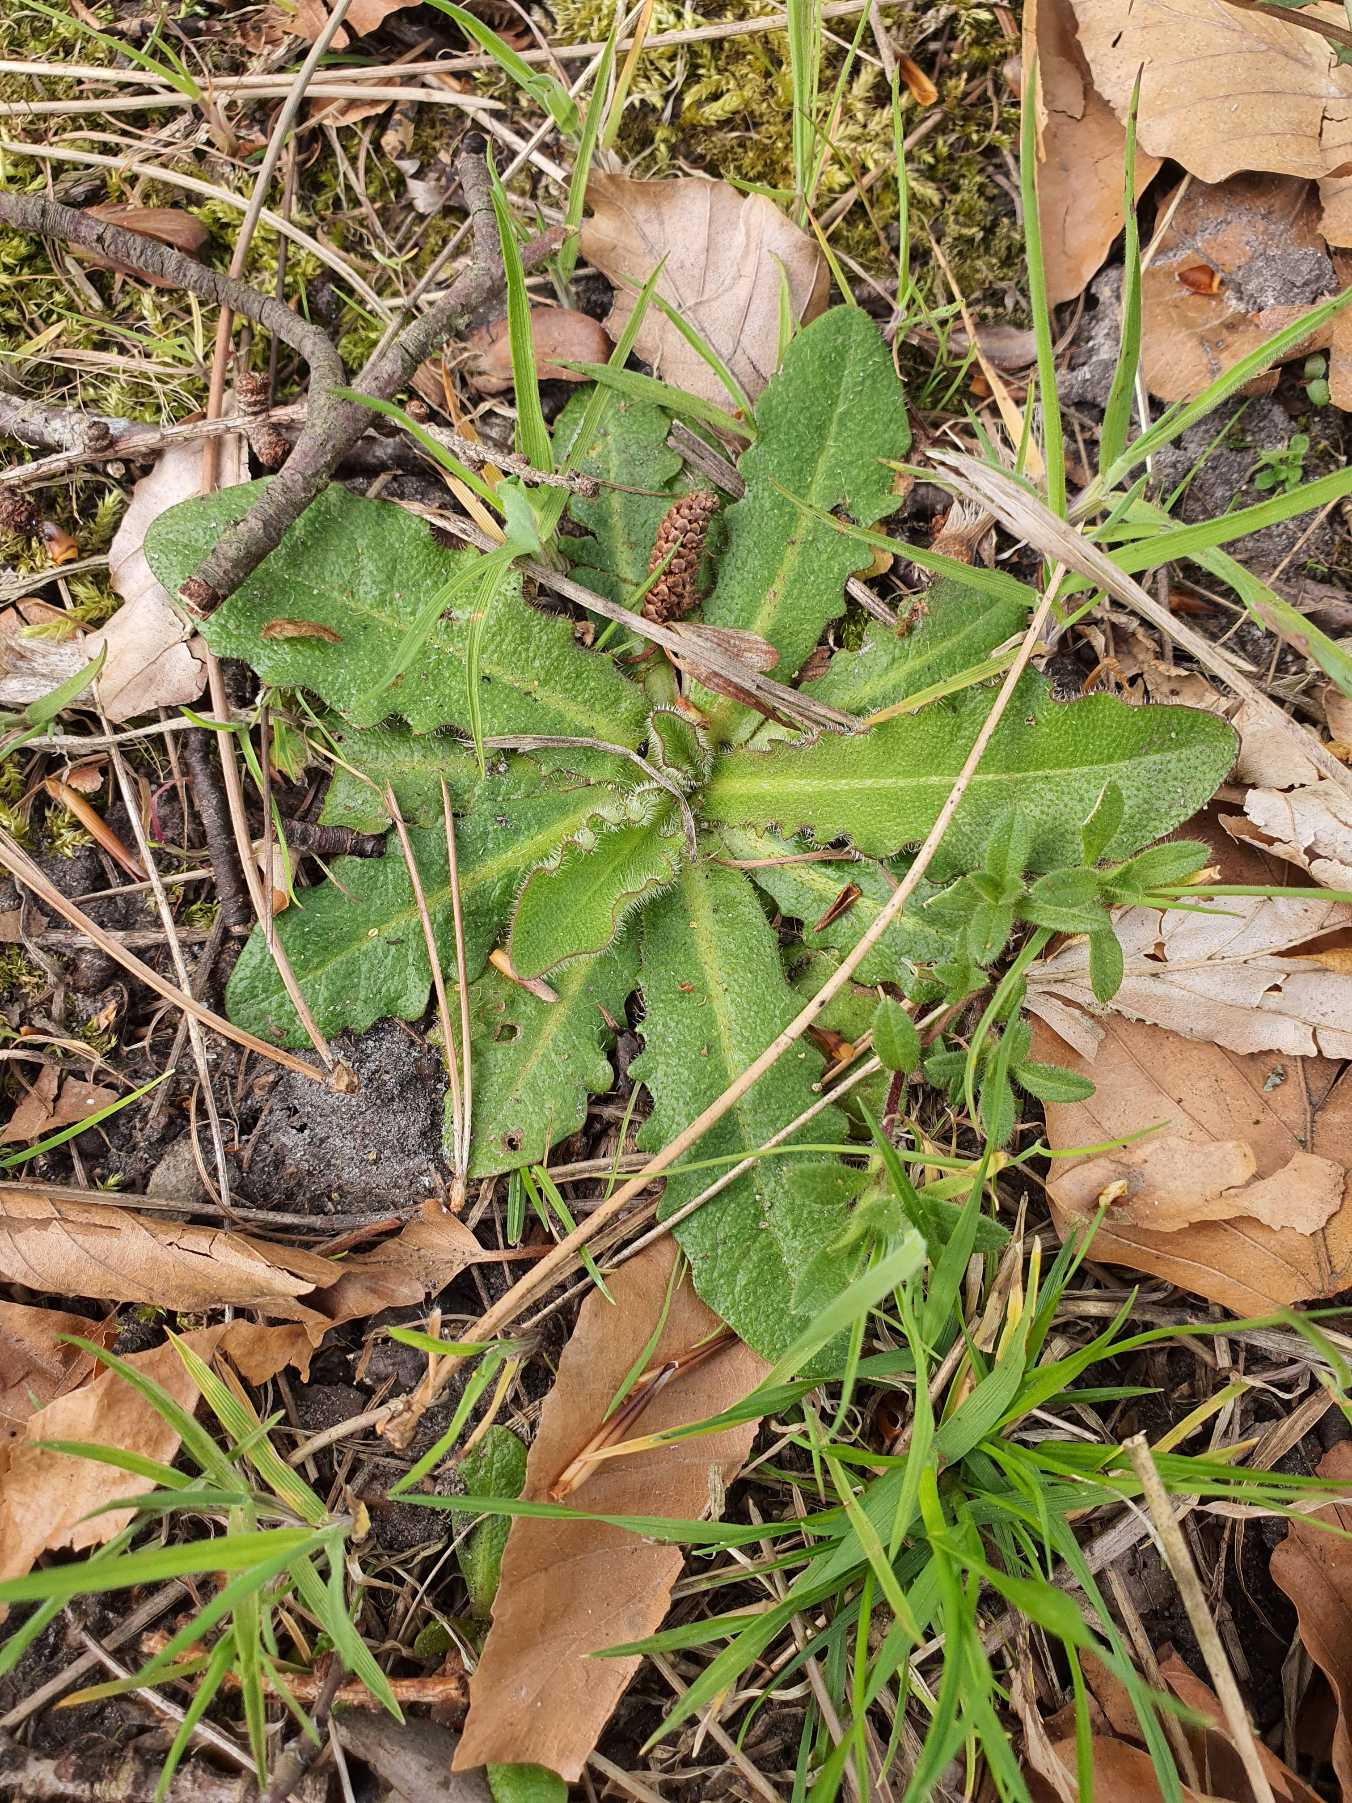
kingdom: Plantae
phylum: Tracheophyta
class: Magnoliopsida
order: Asterales
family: Asteraceae
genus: Hypochaeris
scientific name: Hypochaeris radicata
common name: Almindelig kongepen
